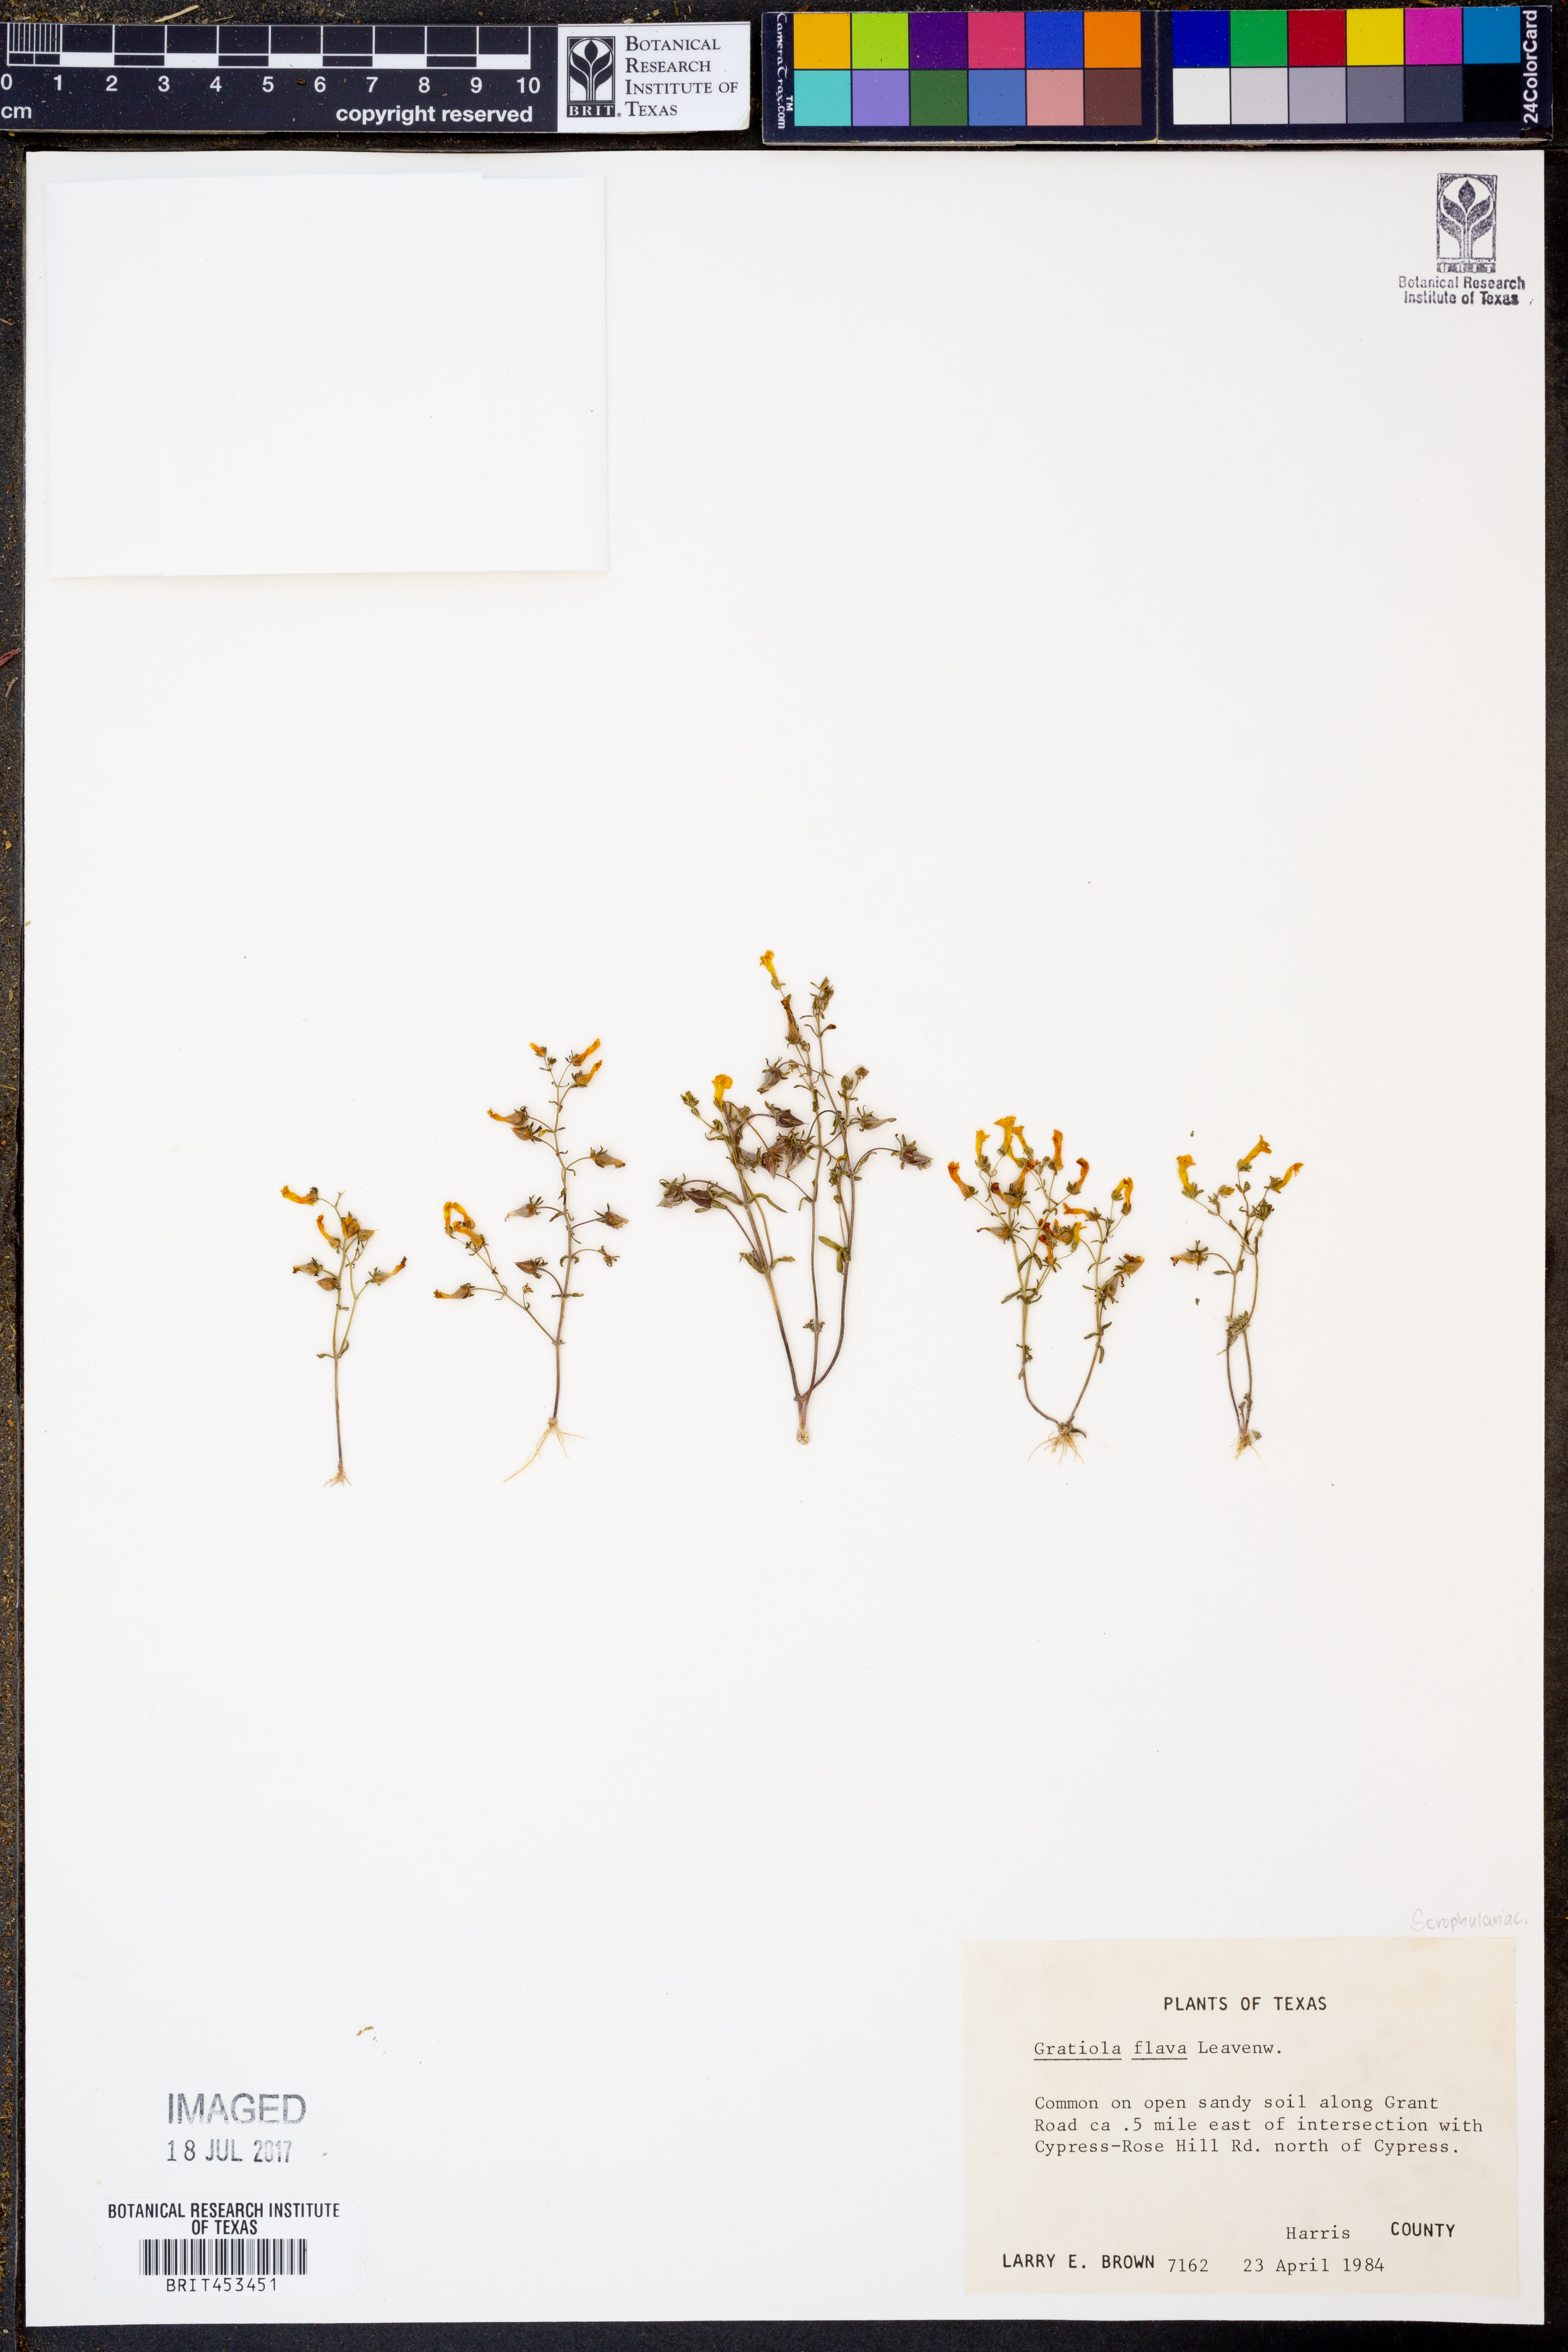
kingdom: Plantae
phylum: Tracheophyta
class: Magnoliopsida
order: Lamiales
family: Plantaginaceae
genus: Gratiola
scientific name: Gratiola flava
